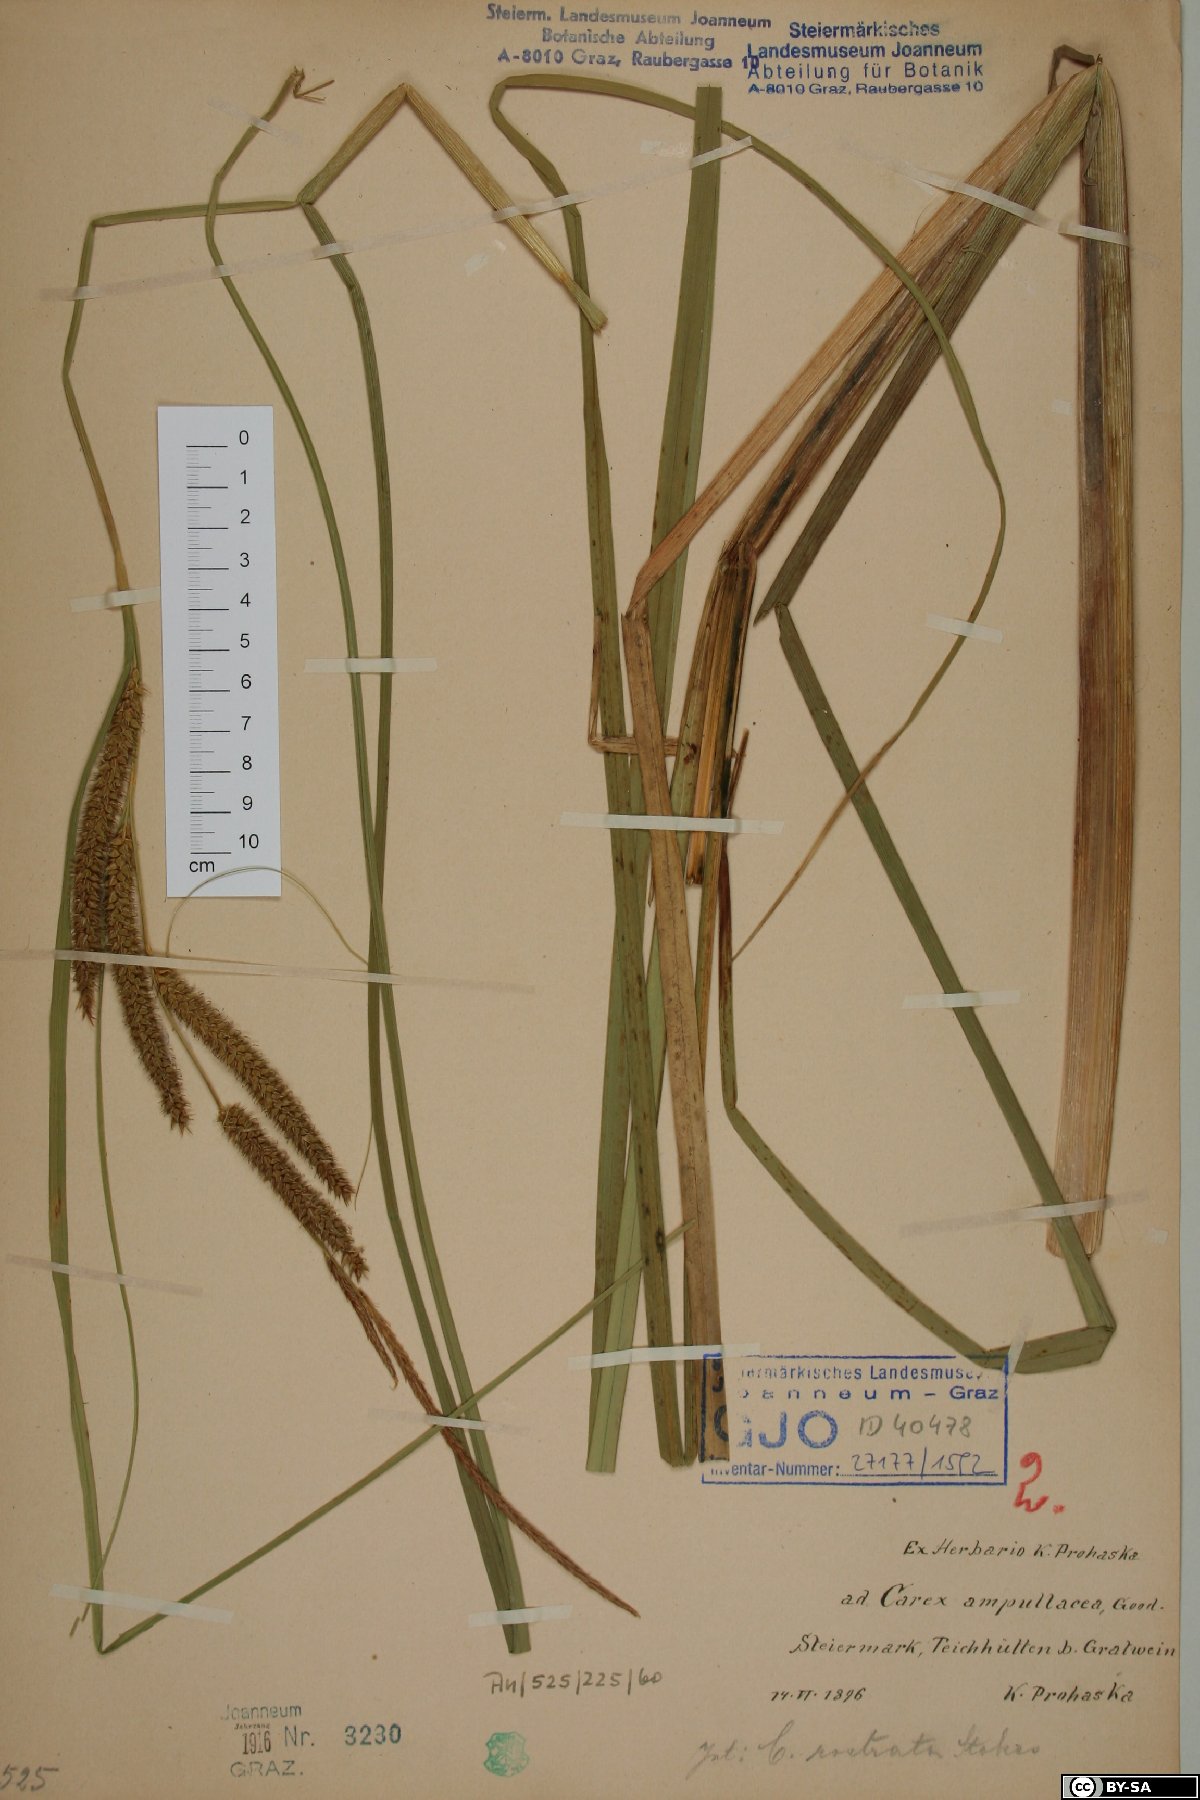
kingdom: Plantae
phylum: Tracheophyta
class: Liliopsida
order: Poales
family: Cyperaceae
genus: Carex
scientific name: Carex rostrata
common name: Bottle sedge
